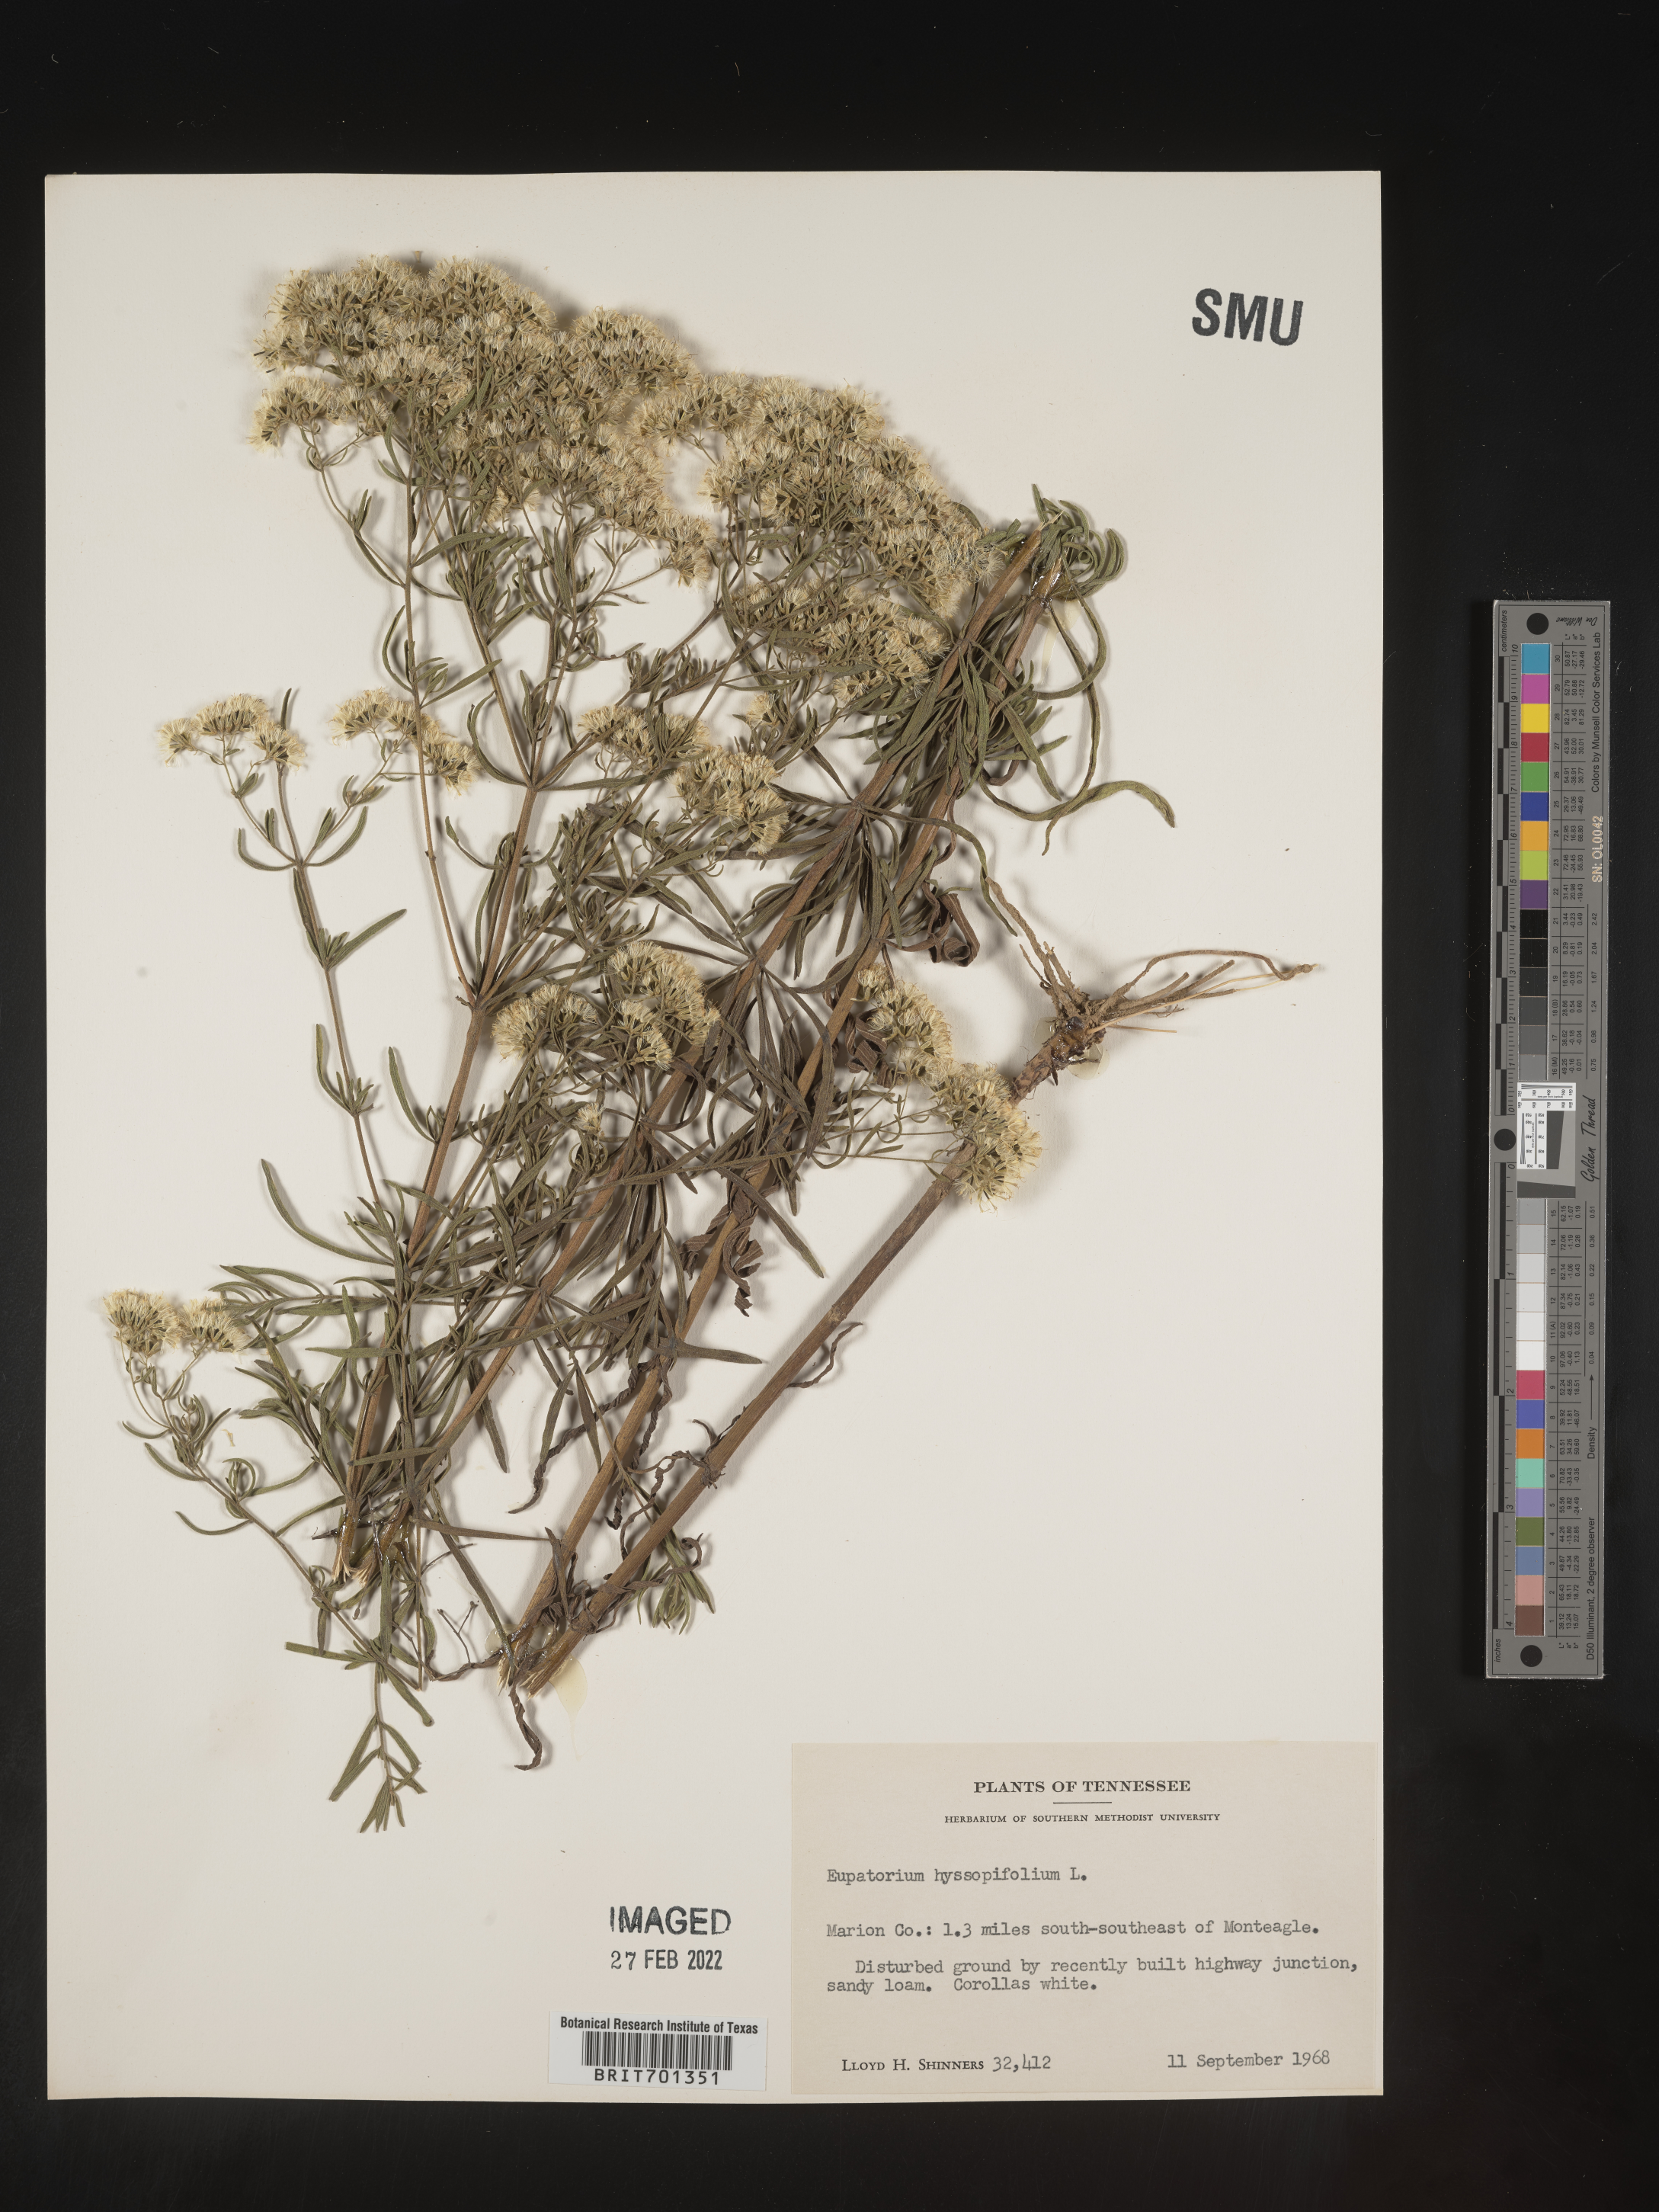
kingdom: Plantae
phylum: Tracheophyta
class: Magnoliopsida
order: Asterales
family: Asteraceae
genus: Eupatorium
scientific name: Eupatorium hyssopifolium
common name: Hyssop-leaf thoroughwort
